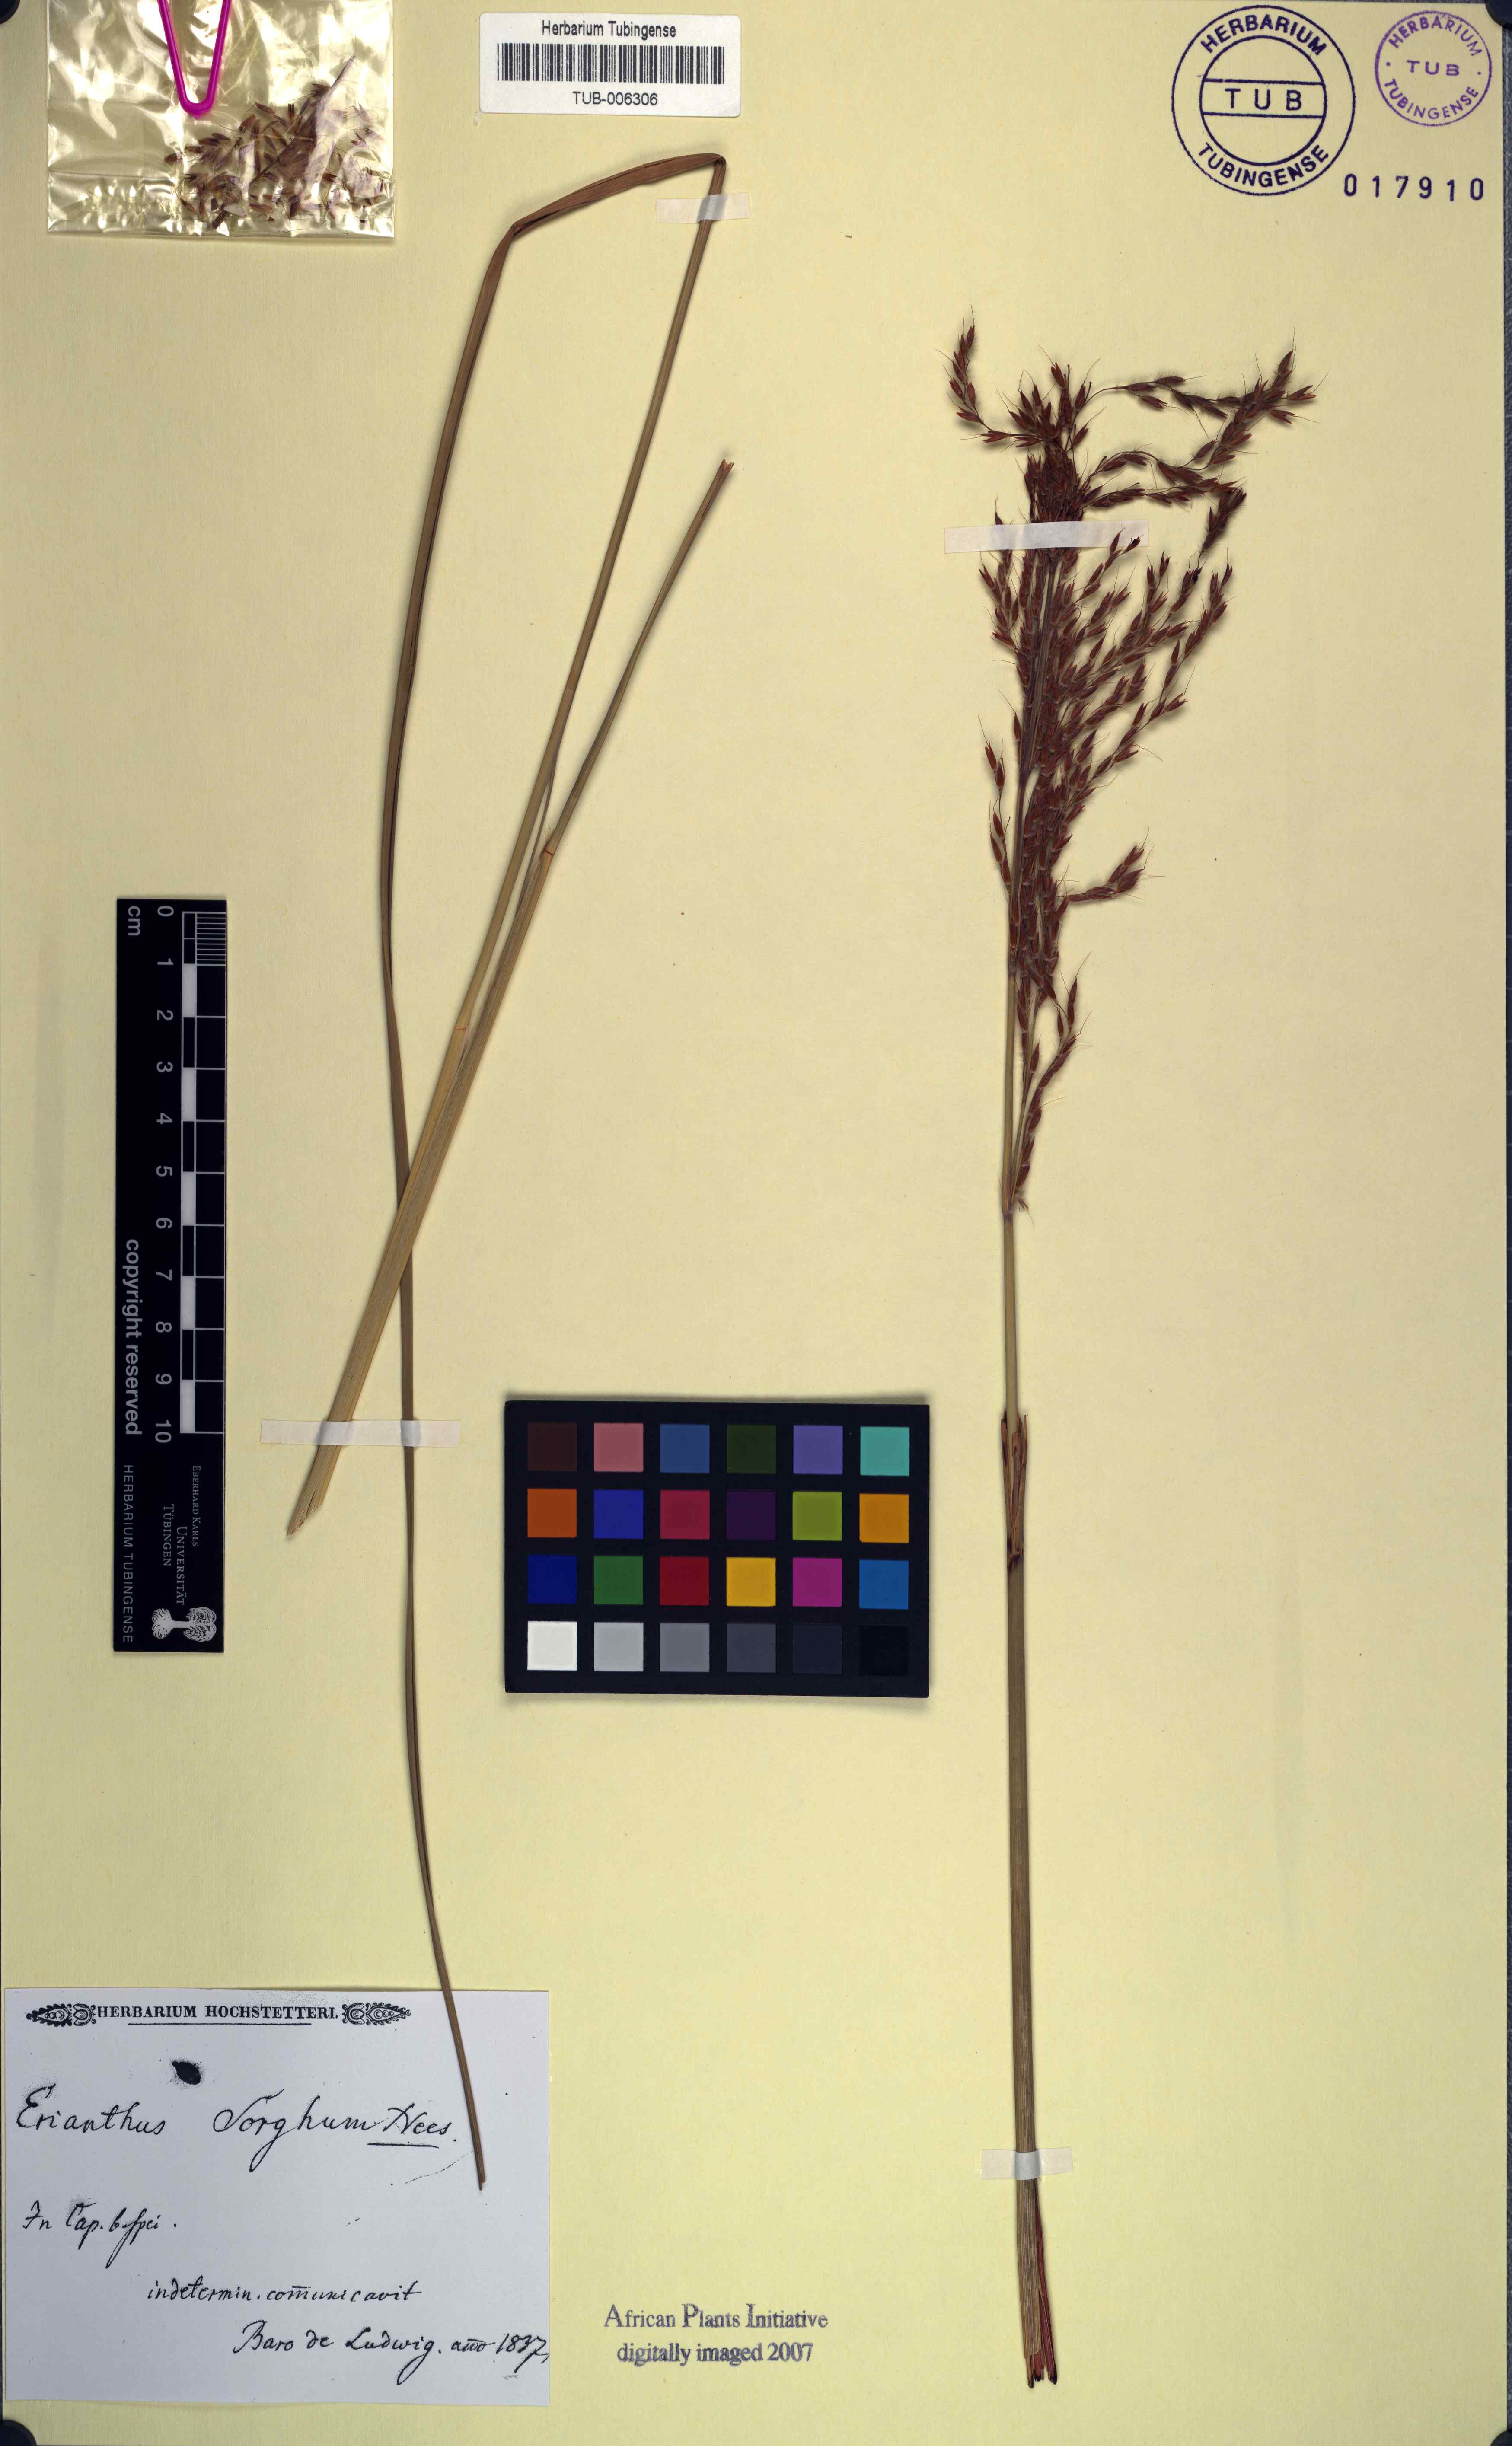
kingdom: Plantae
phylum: Tracheophyta
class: Liliopsida
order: Poales
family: Poaceae
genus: Miscanthus
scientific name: Miscanthus ecklonii
